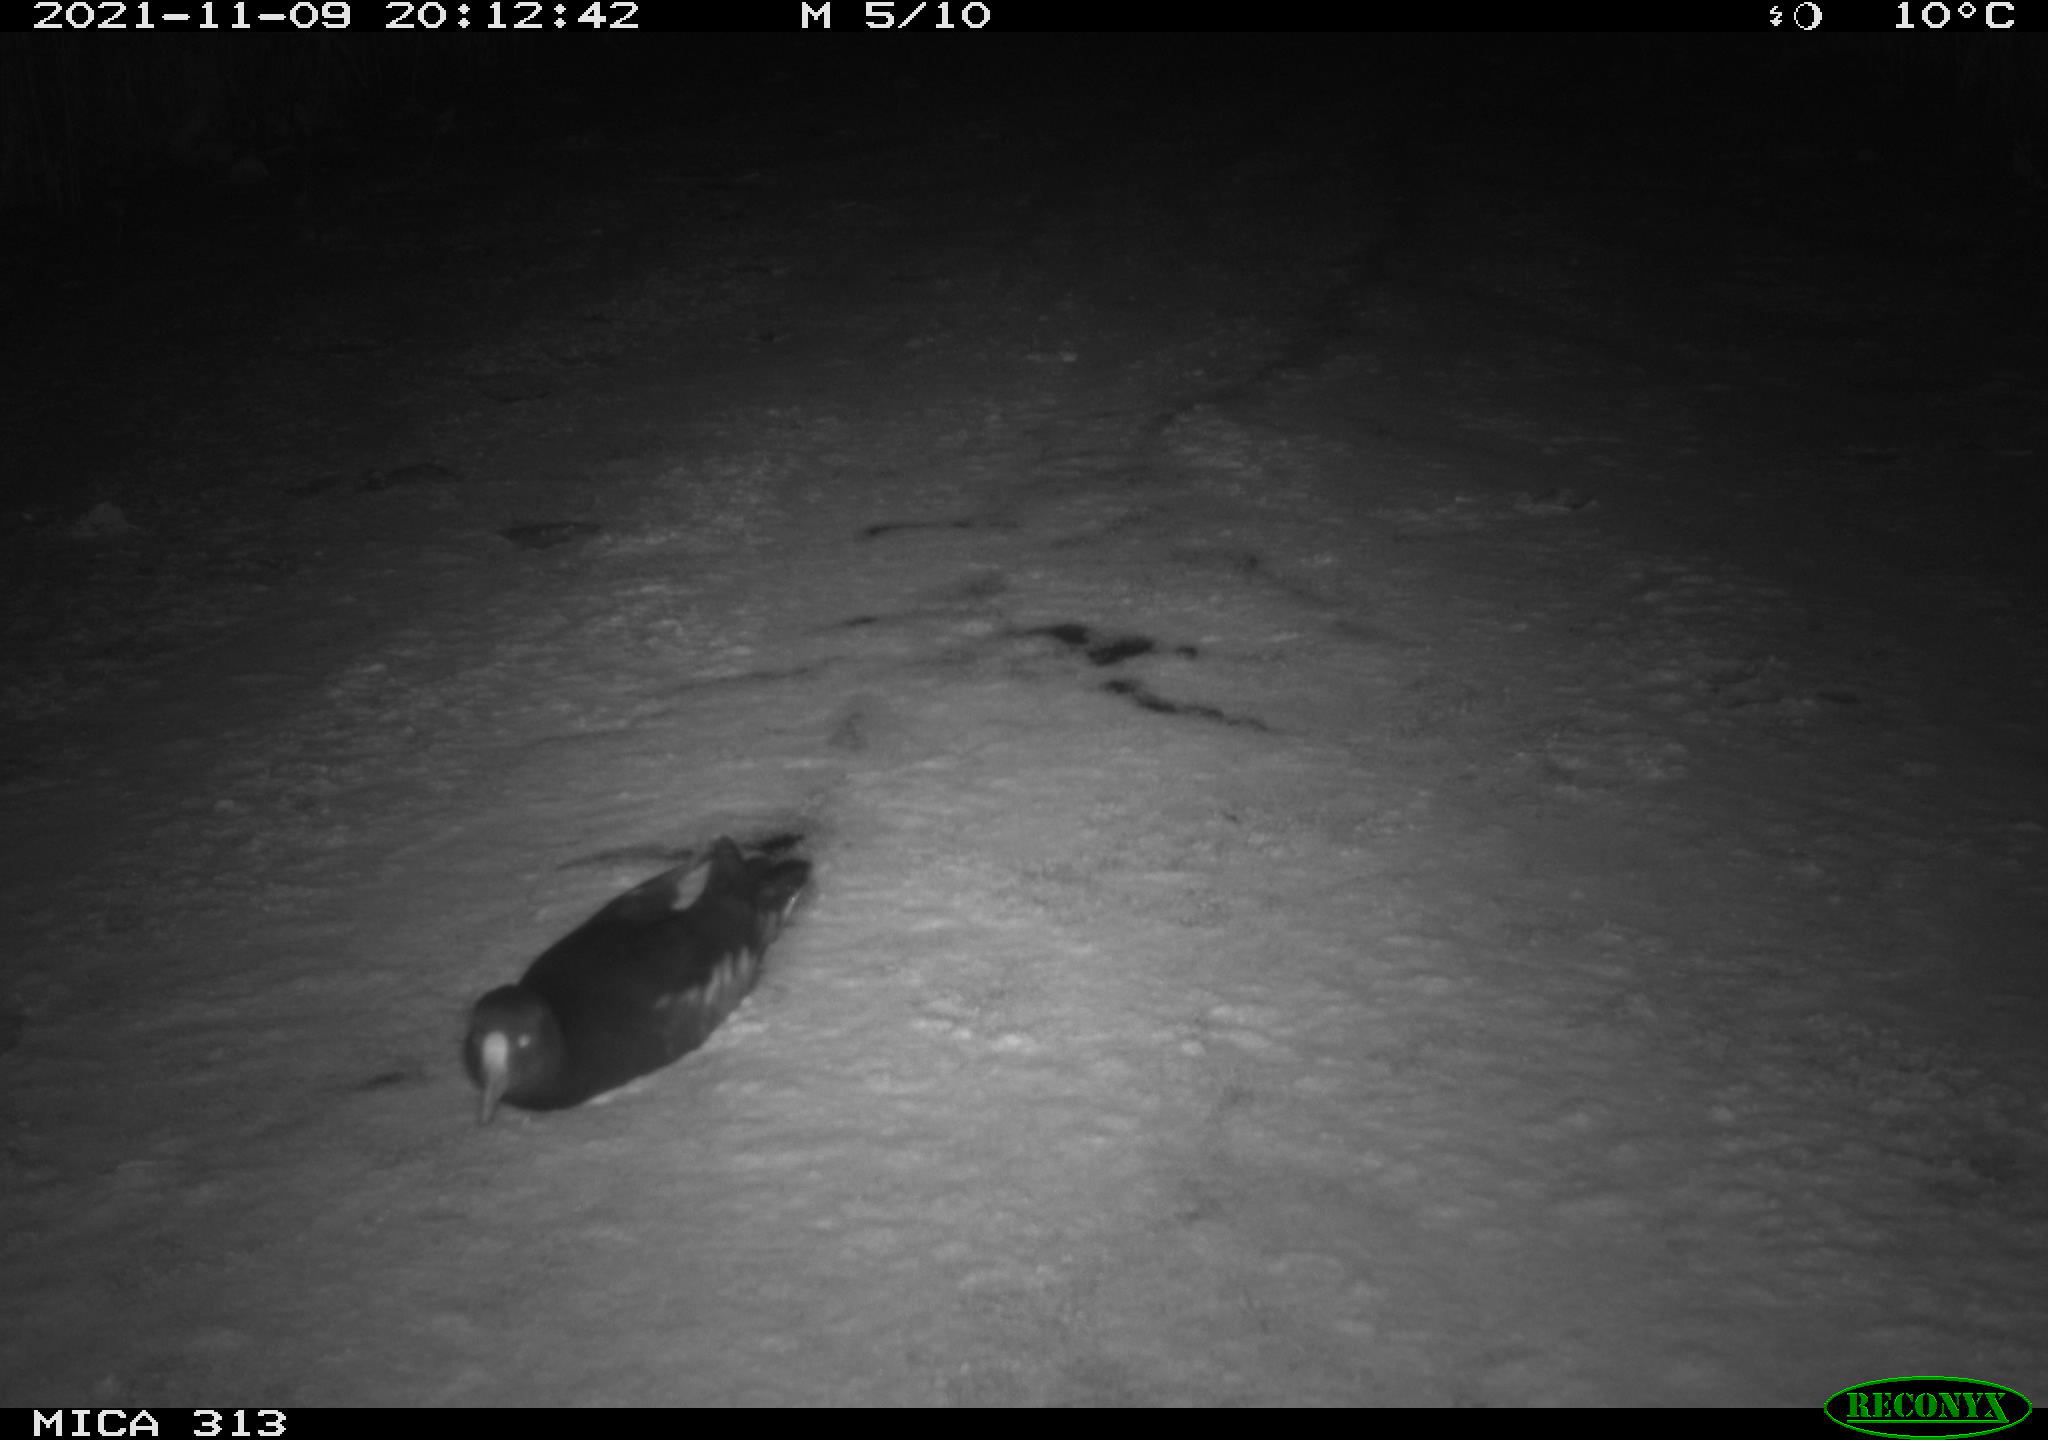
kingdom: Animalia
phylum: Chordata
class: Aves
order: Gruiformes
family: Rallidae
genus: Gallinula
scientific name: Gallinula chloropus
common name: Common moorhen
